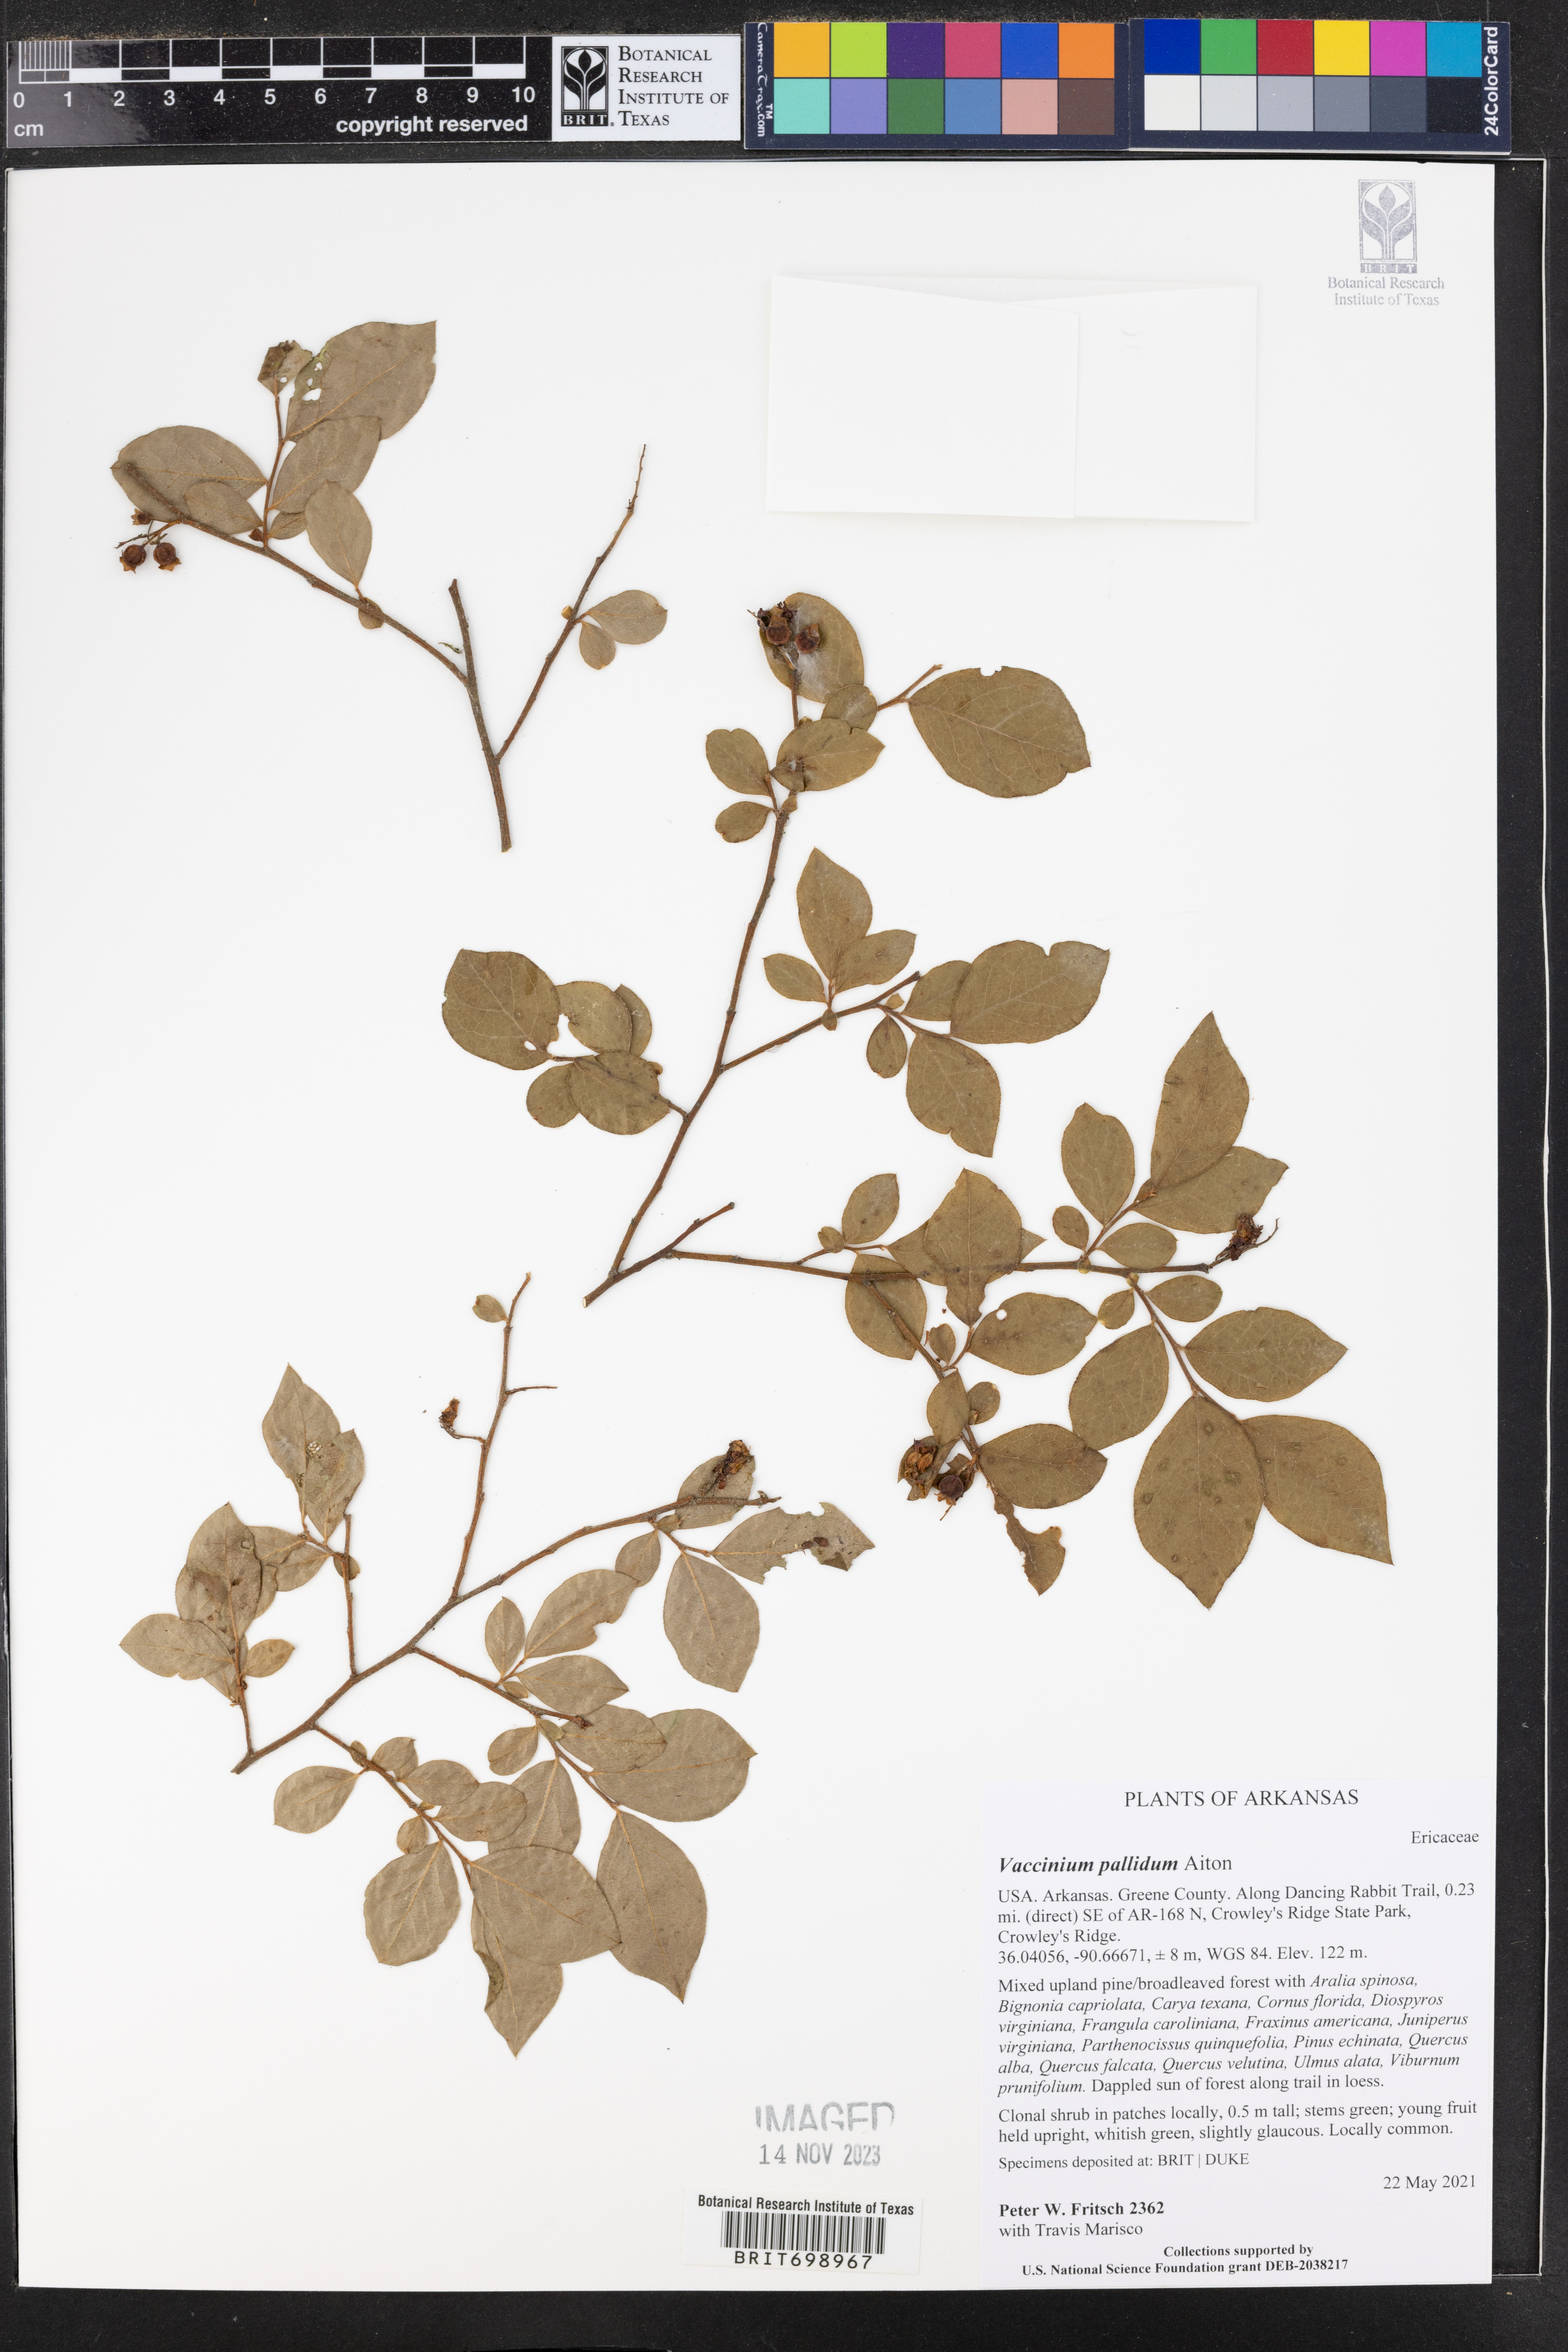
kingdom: Plantae
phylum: Tracheophyta
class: Magnoliopsida
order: Ericales
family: Ericaceae
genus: Vaccinium
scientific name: Vaccinium pallidum
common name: Blue ridge blueberry
